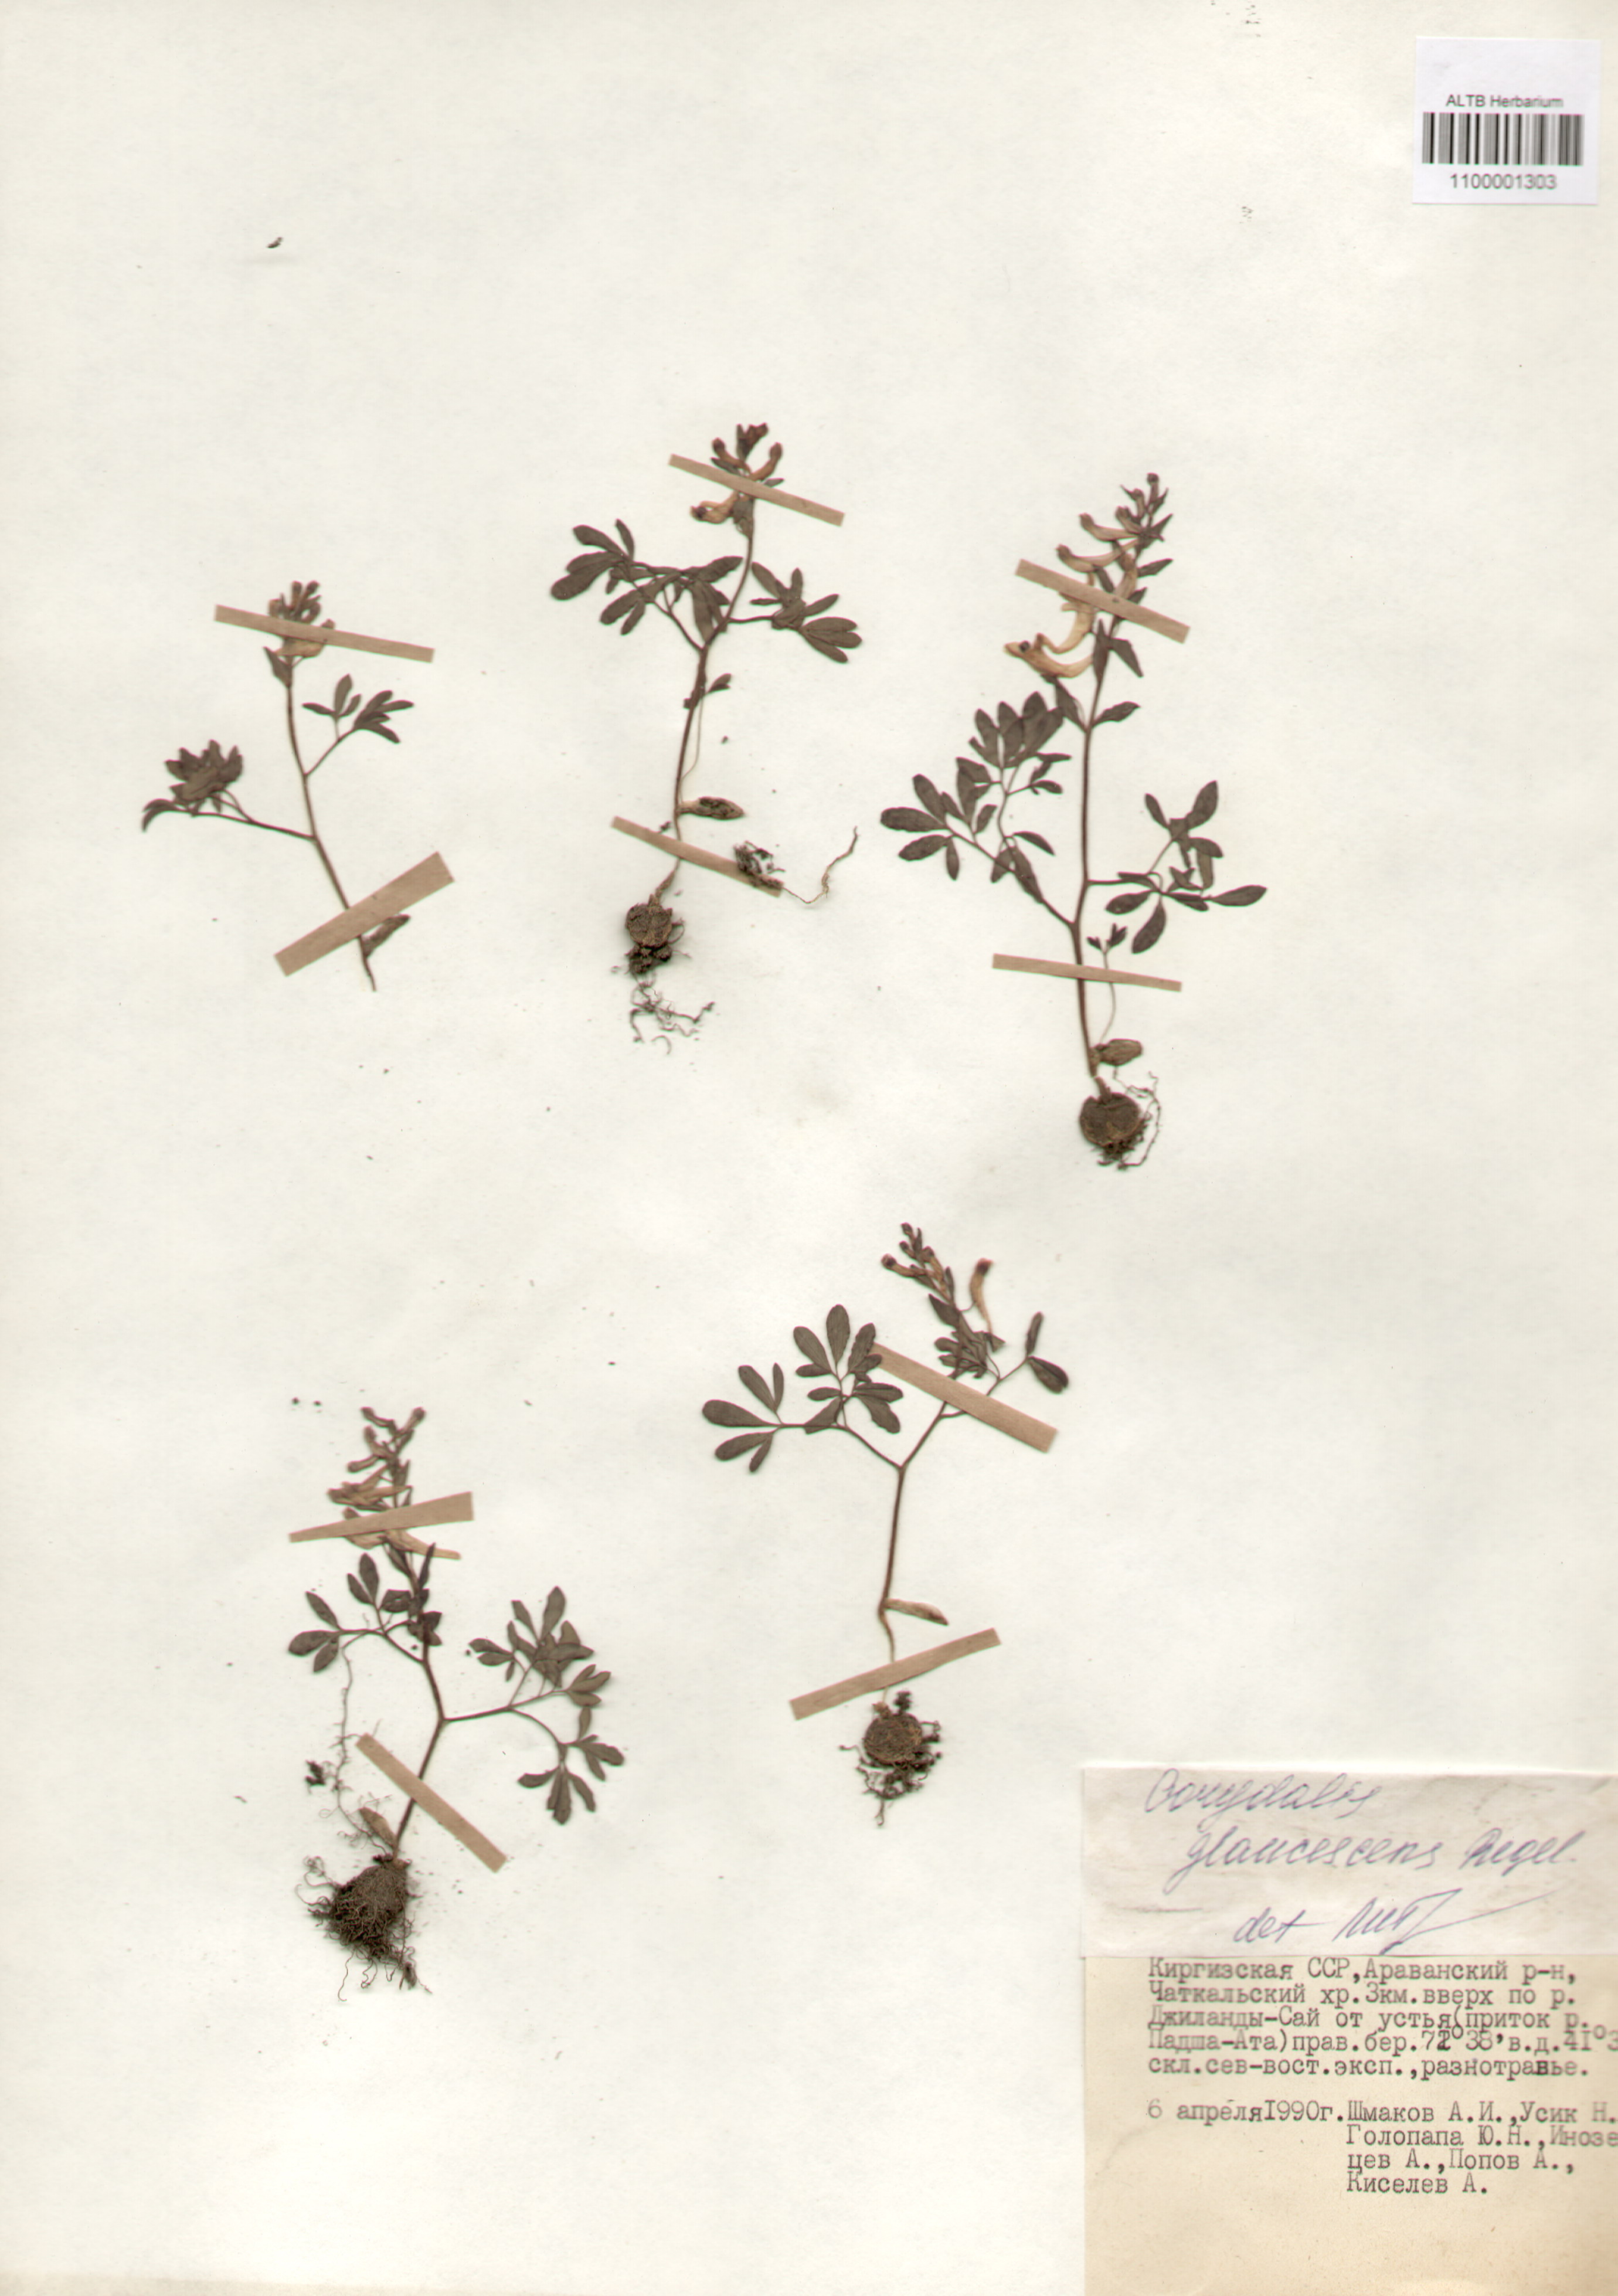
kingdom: Plantae
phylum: Tracheophyta
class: Magnoliopsida
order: Ranunculales
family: Papaveraceae
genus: Corydalis
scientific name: Corydalis glaucescens
